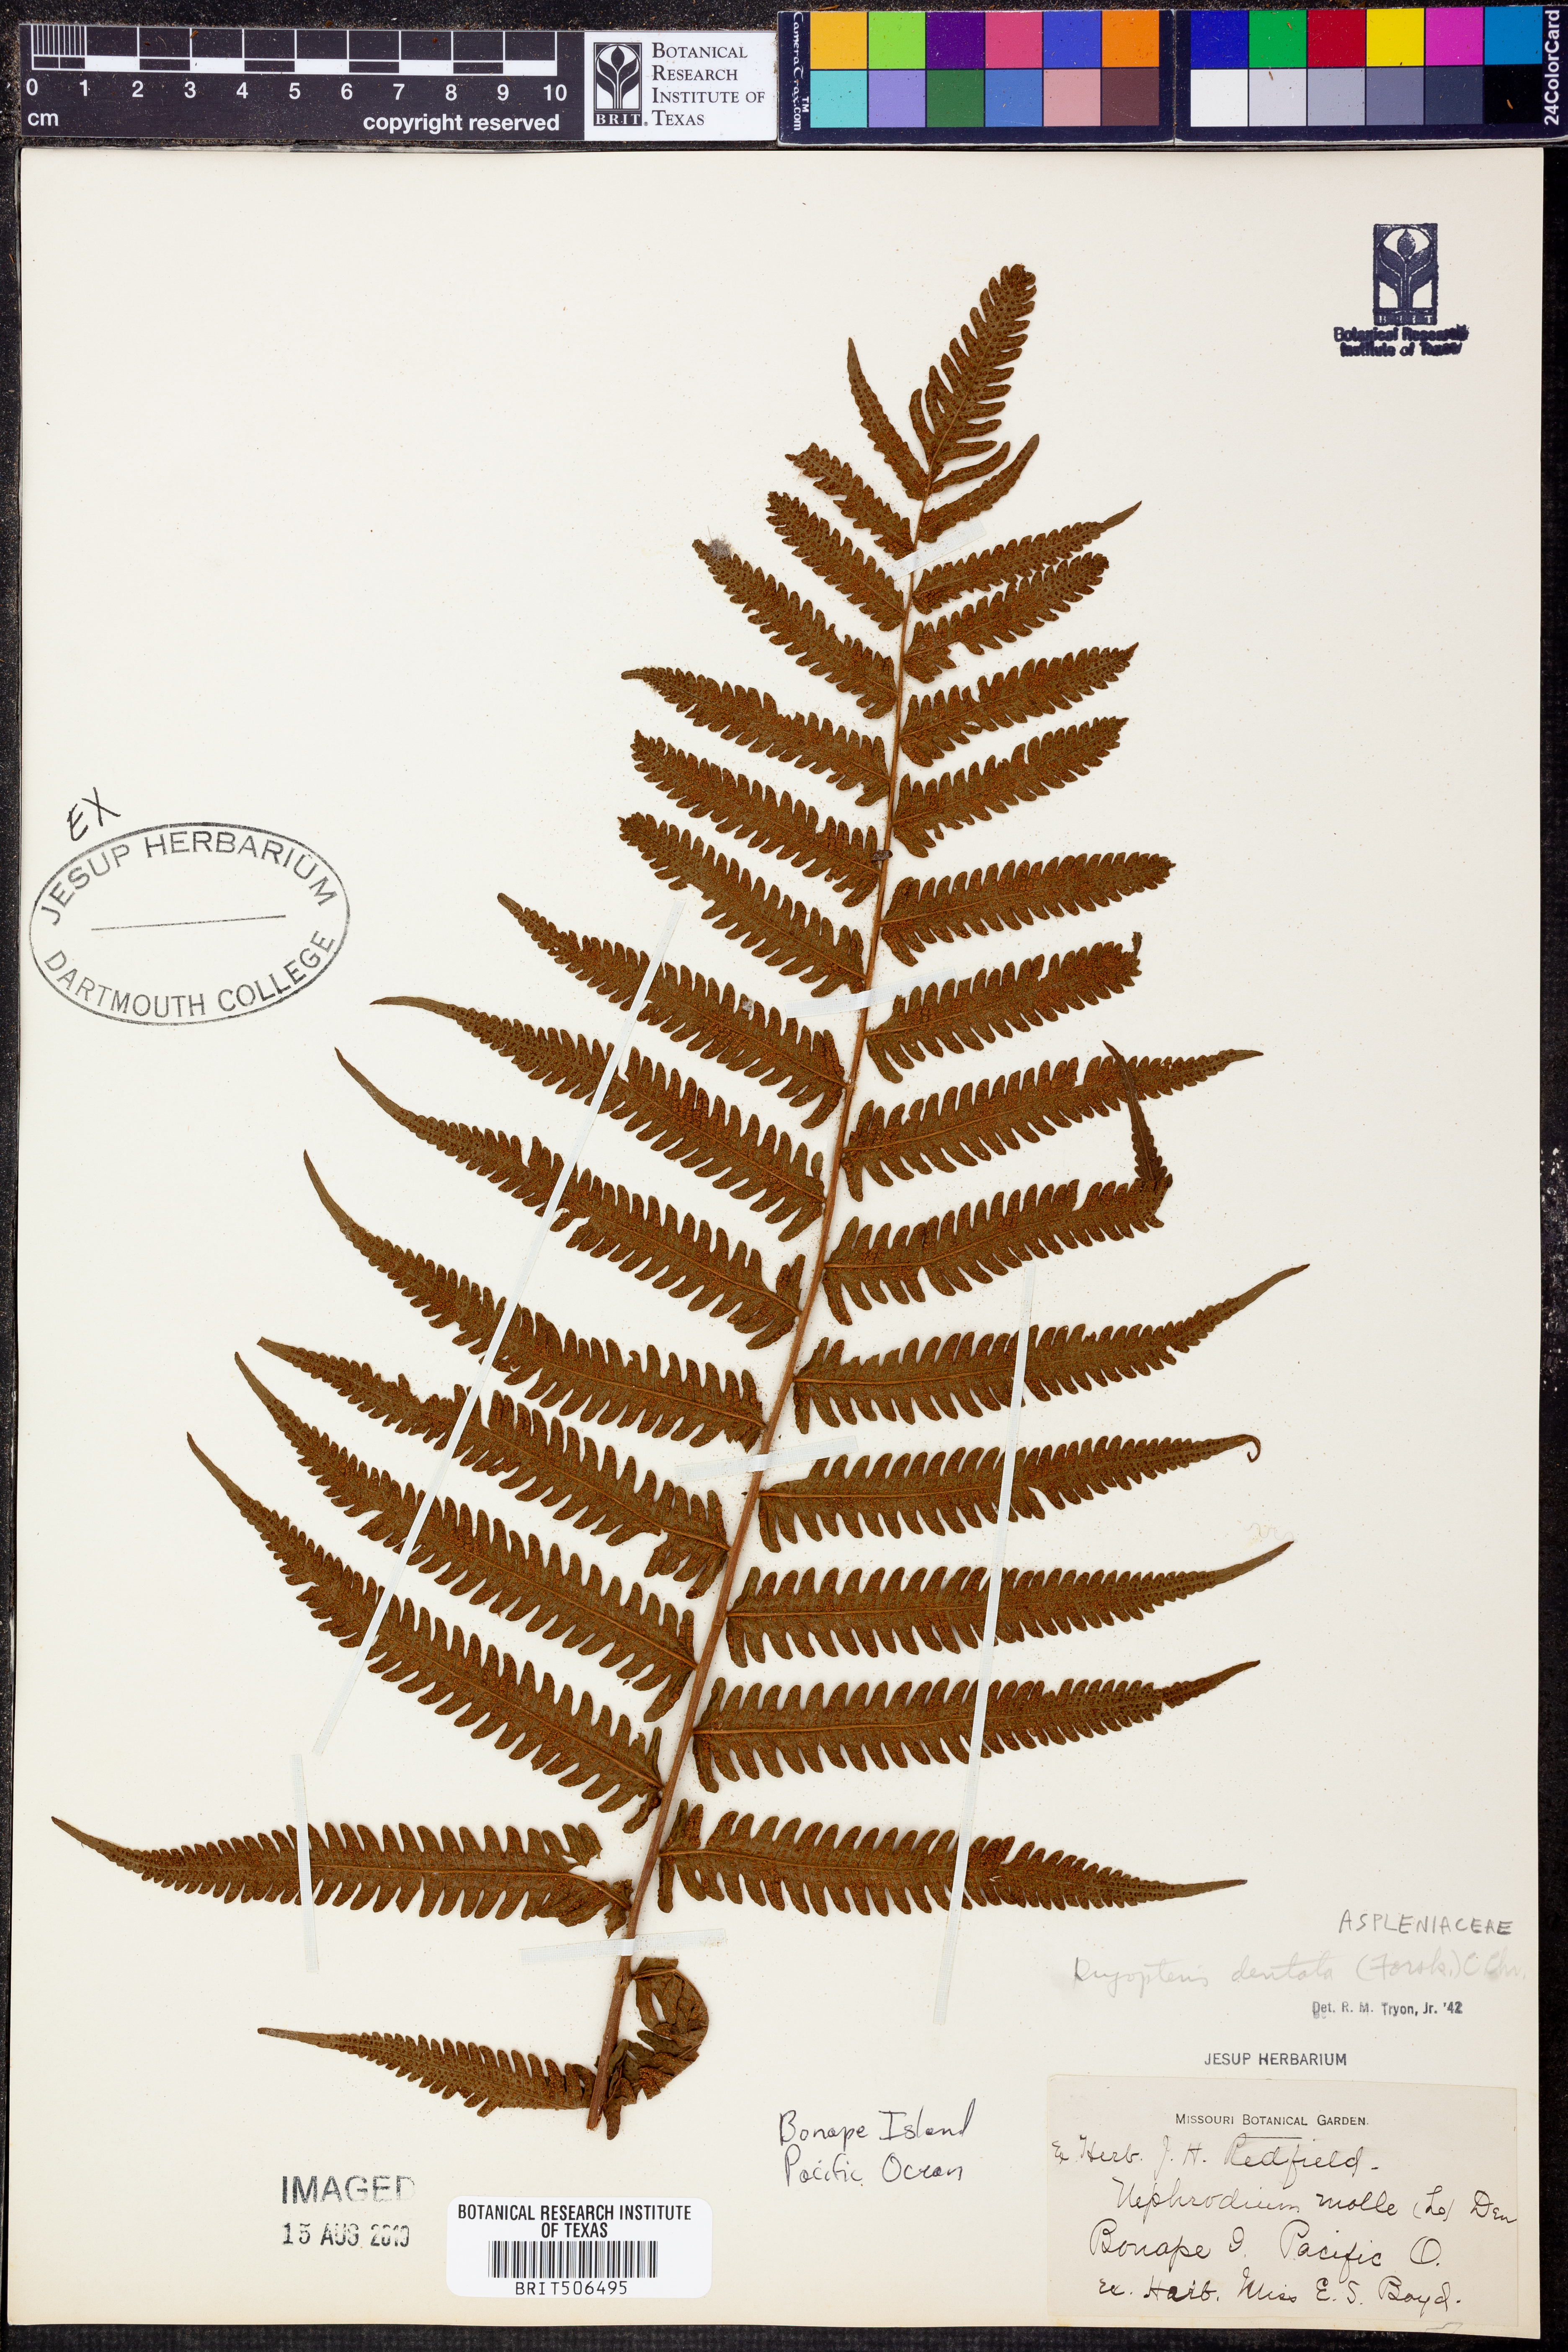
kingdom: Plantae
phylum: Tracheophyta
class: Polypodiopsida
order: Polypodiales
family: Thelypteridaceae
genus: Christella
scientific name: Christella dentata
